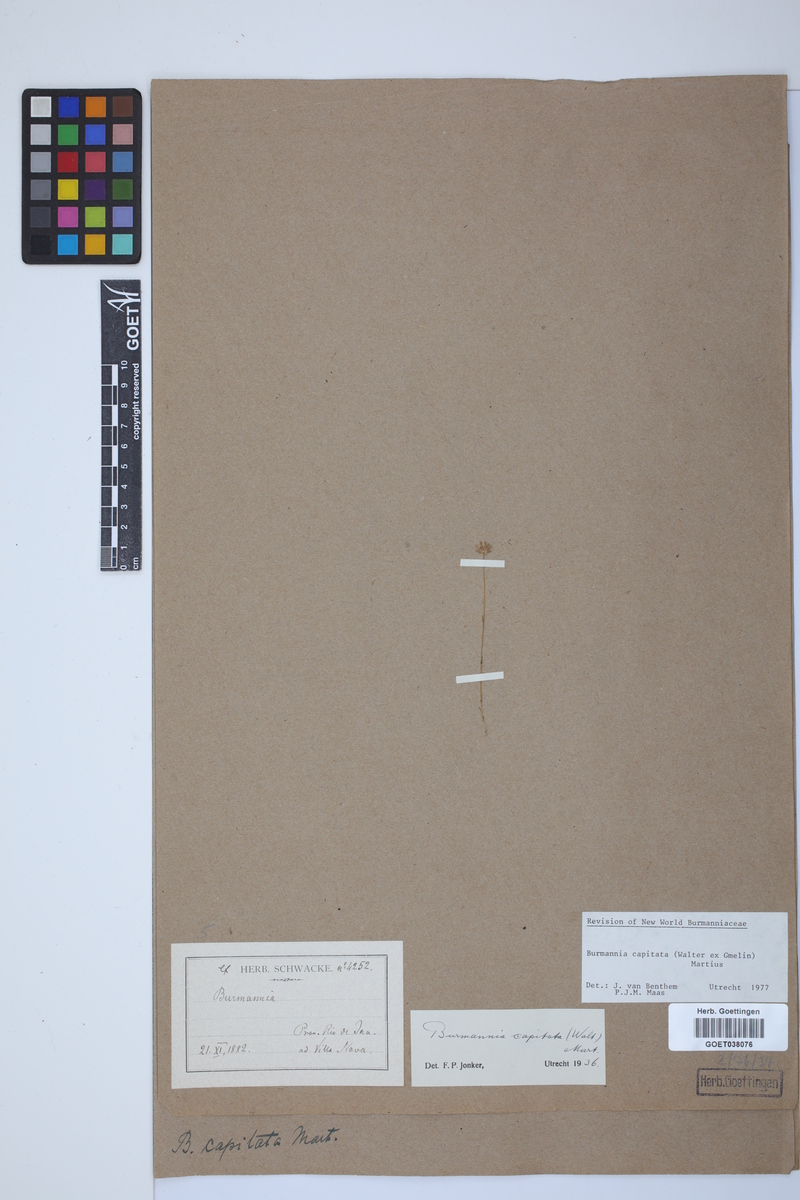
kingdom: Plantae
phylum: Tracheophyta
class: Liliopsida
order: Dioscoreales
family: Burmanniaceae
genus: Burmannia
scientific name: Burmannia capitata
